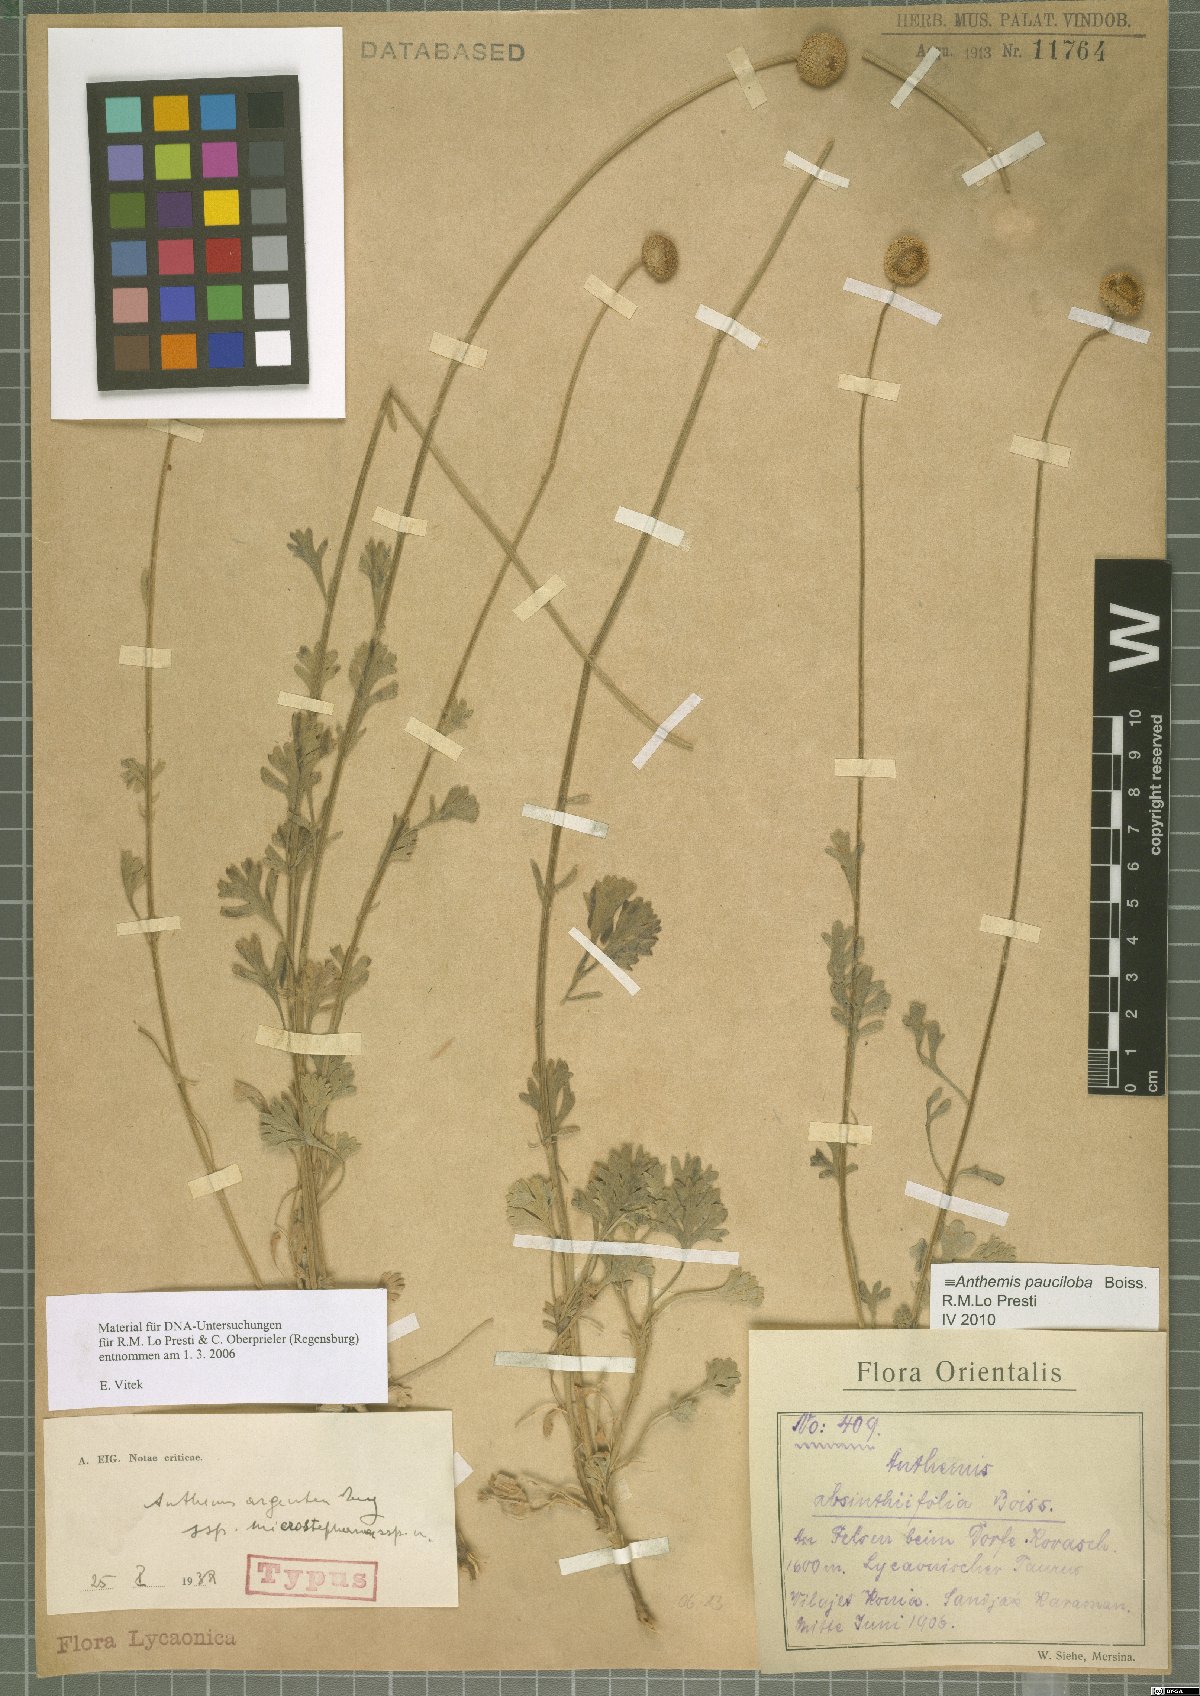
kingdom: Plantae
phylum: Tracheophyta
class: Magnoliopsida
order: Asterales
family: Asteraceae
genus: Anthemis
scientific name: Anthemis pauciloba
